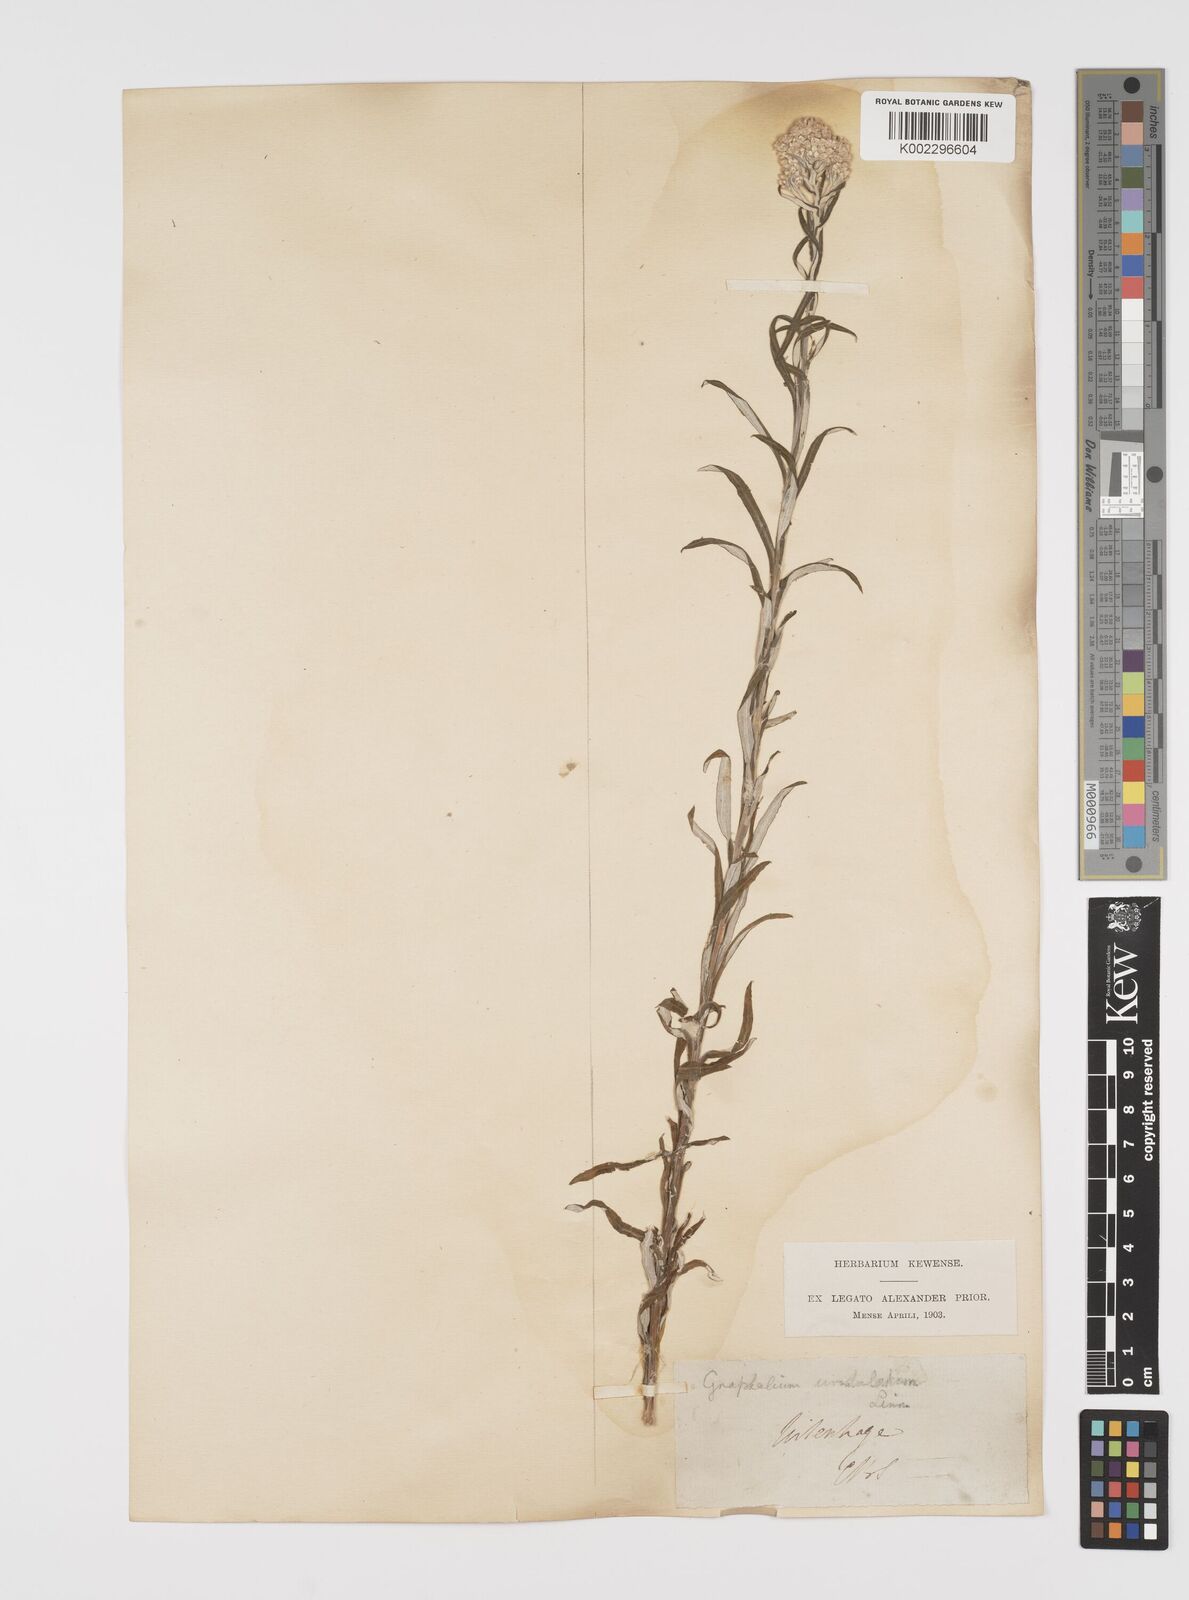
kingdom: Plantae
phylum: Tracheophyta
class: Magnoliopsida
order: Asterales
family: Asteraceae
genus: Pseudognaphalium
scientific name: Pseudognaphalium undulatum
